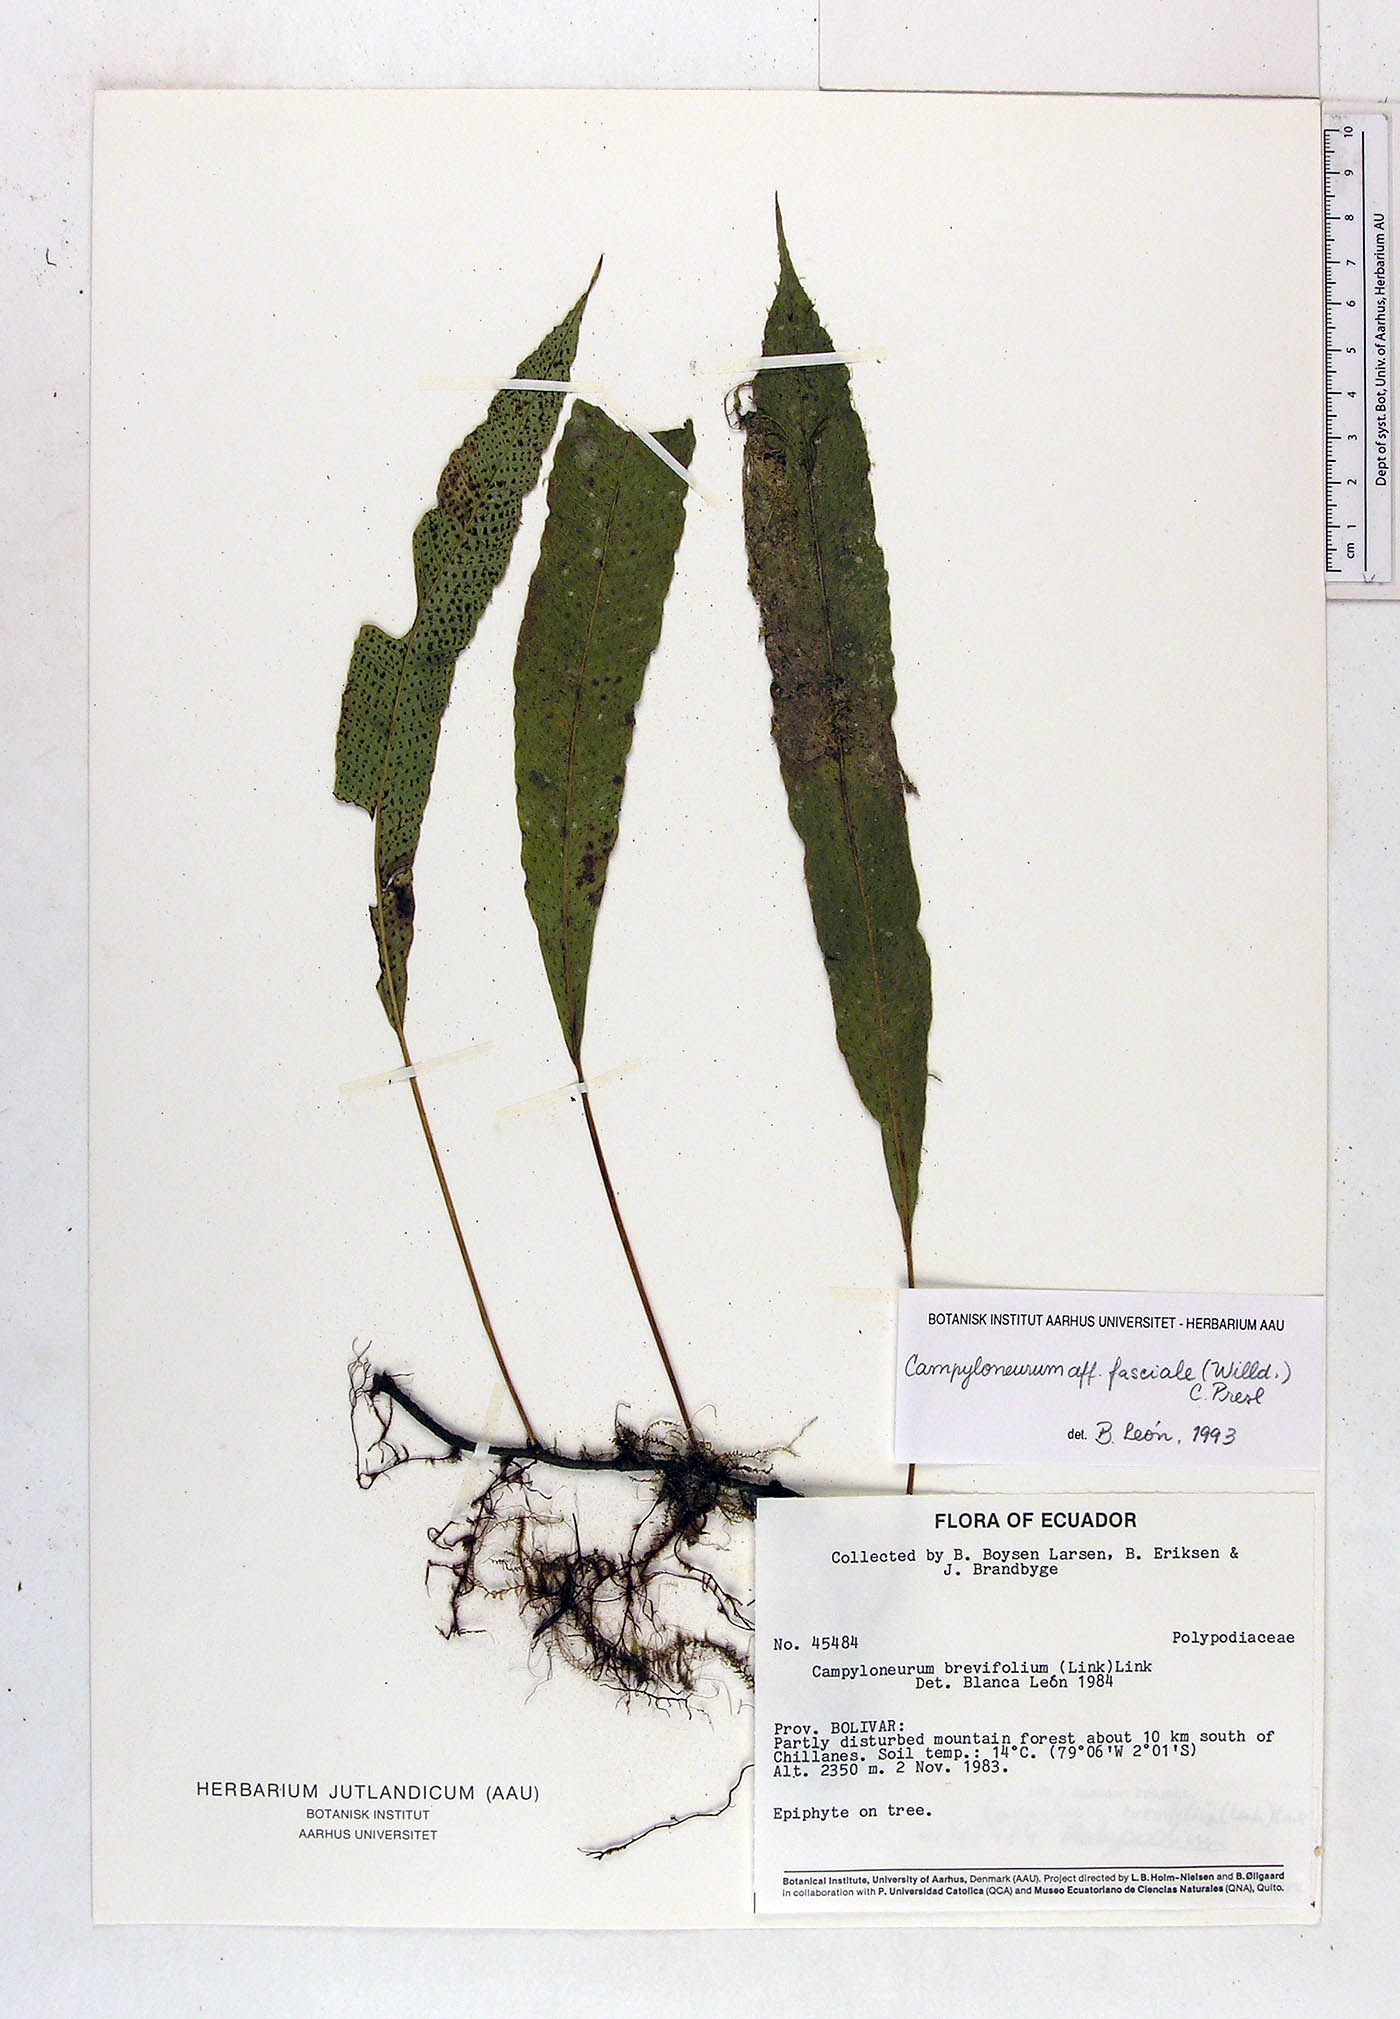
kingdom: Plantae
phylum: Tracheophyta
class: Polypodiopsida
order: Polypodiales
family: Polypodiaceae
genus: Campyloneurum
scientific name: Campyloneurum repens
